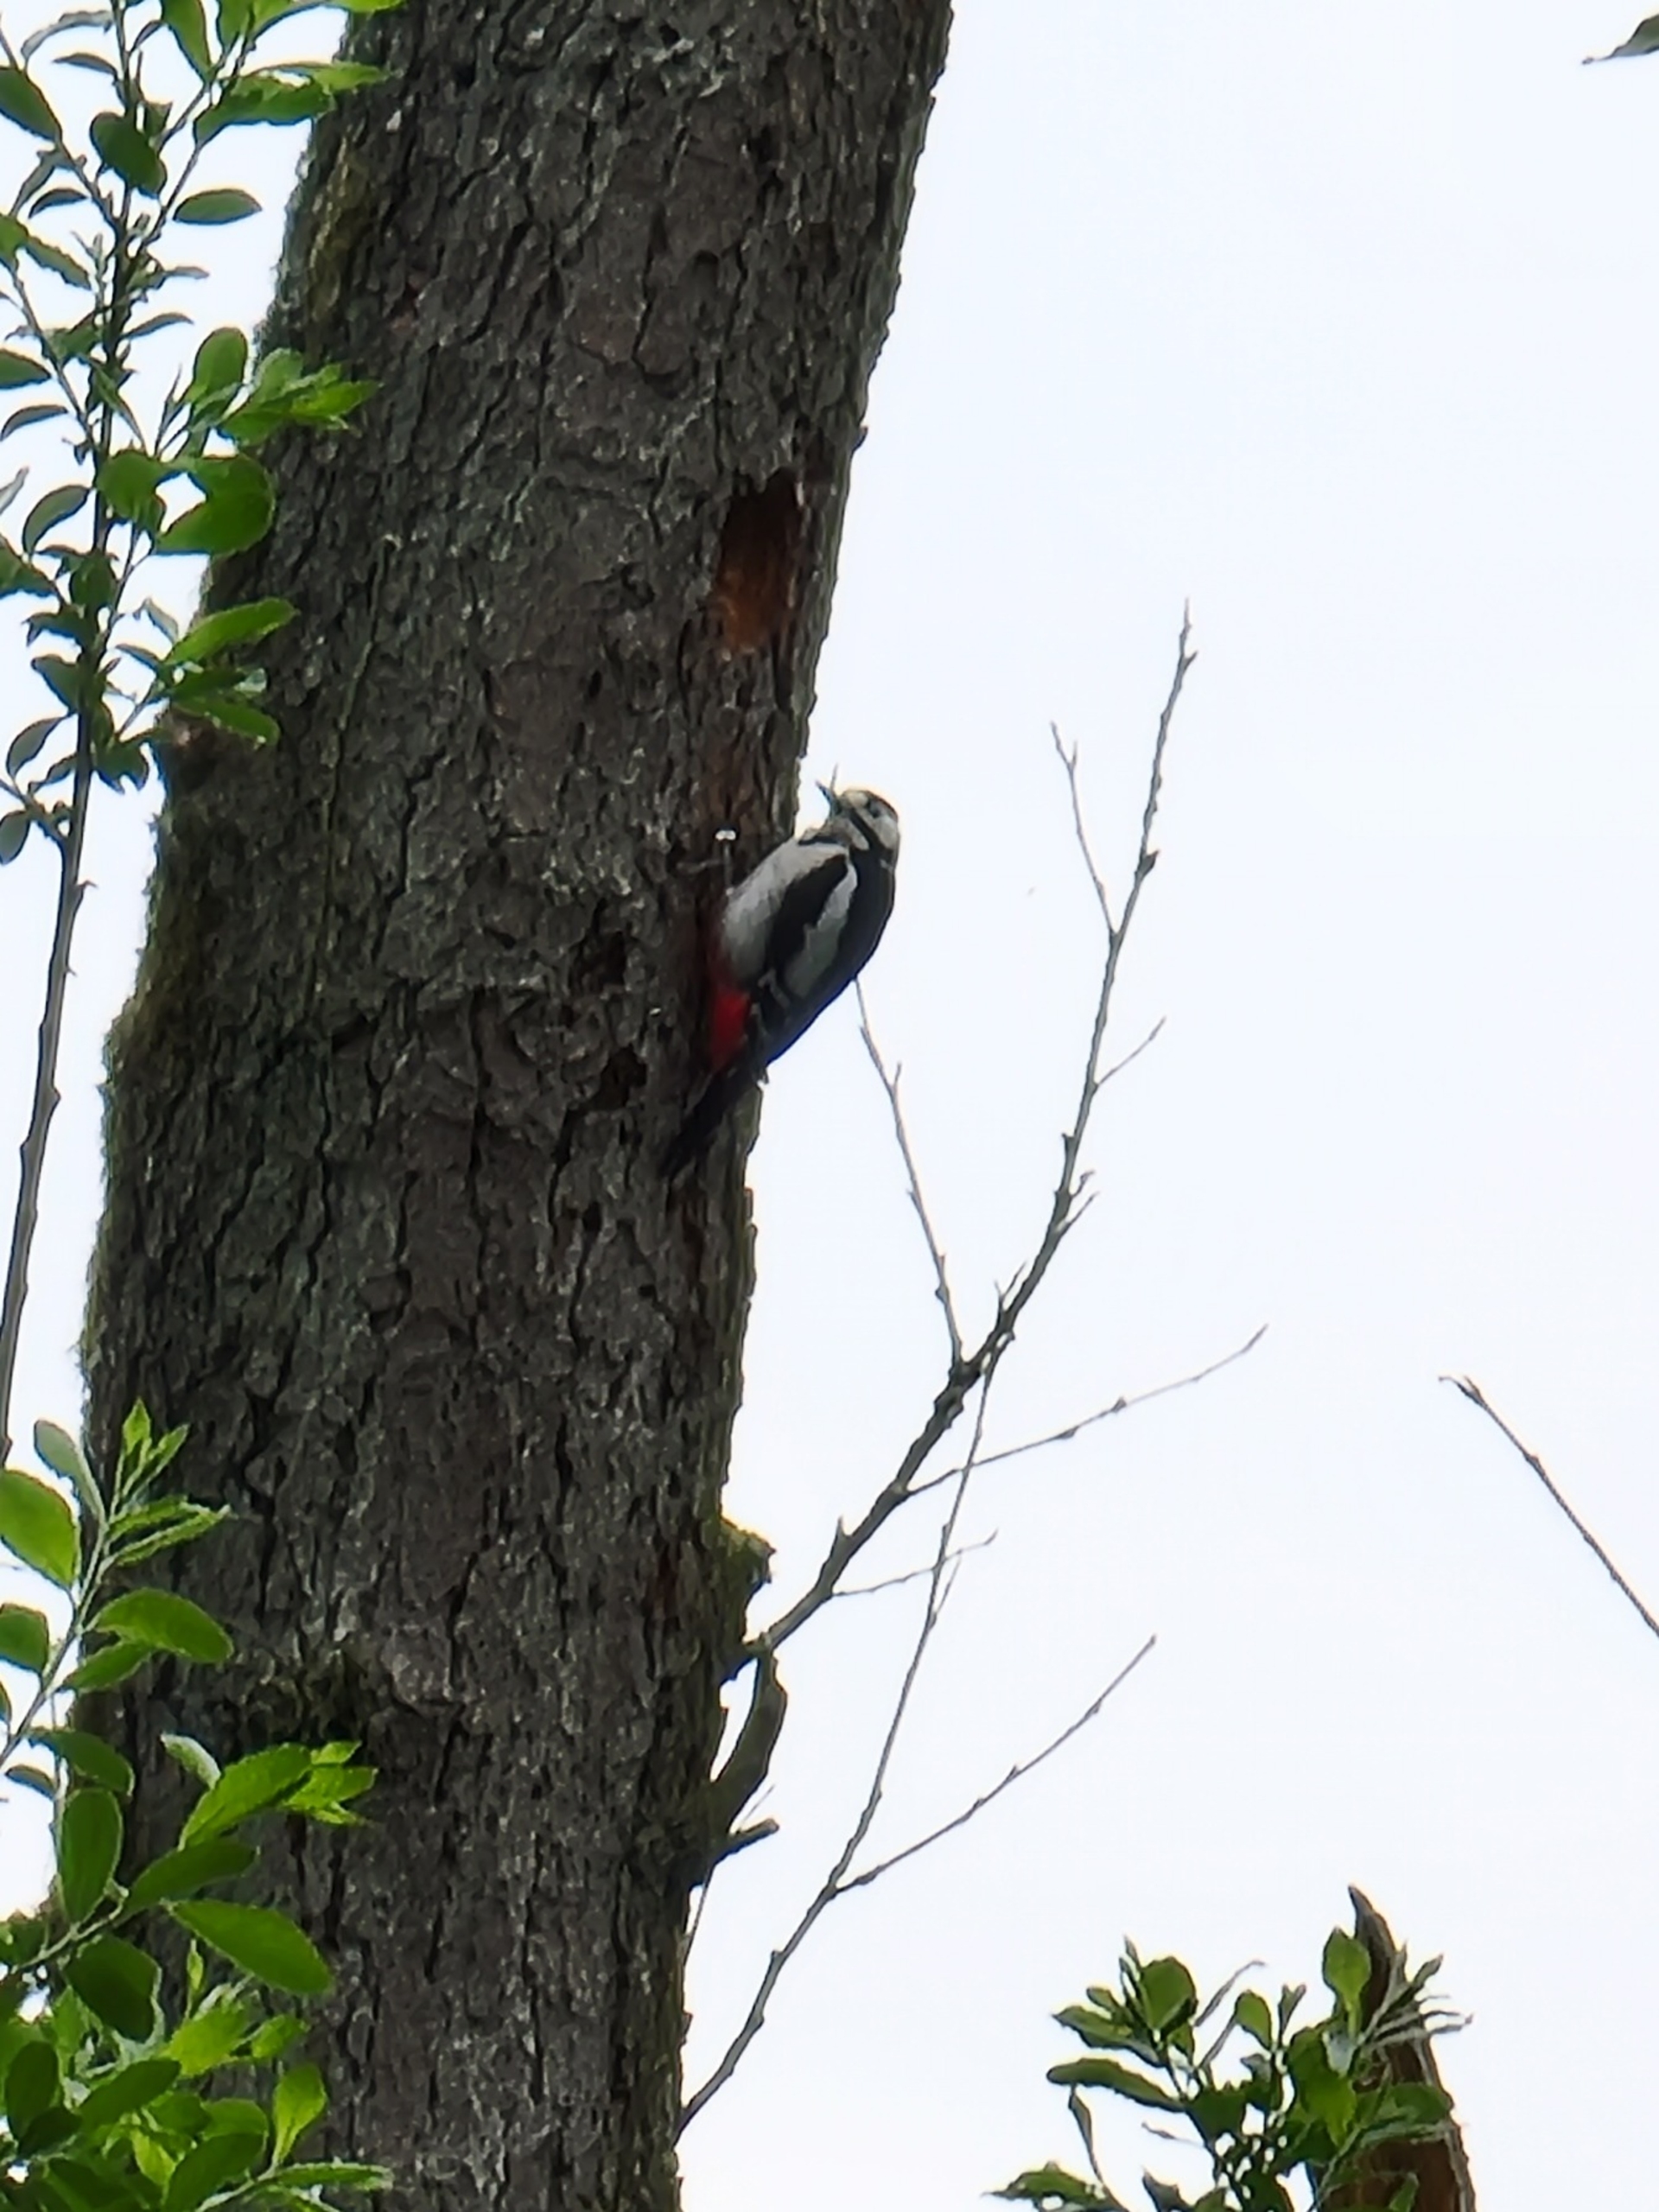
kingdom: Animalia
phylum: Chordata
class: Aves
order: Piciformes
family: Picidae
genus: Dendrocopos
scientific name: Dendrocopos major
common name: Stor flagspætte
